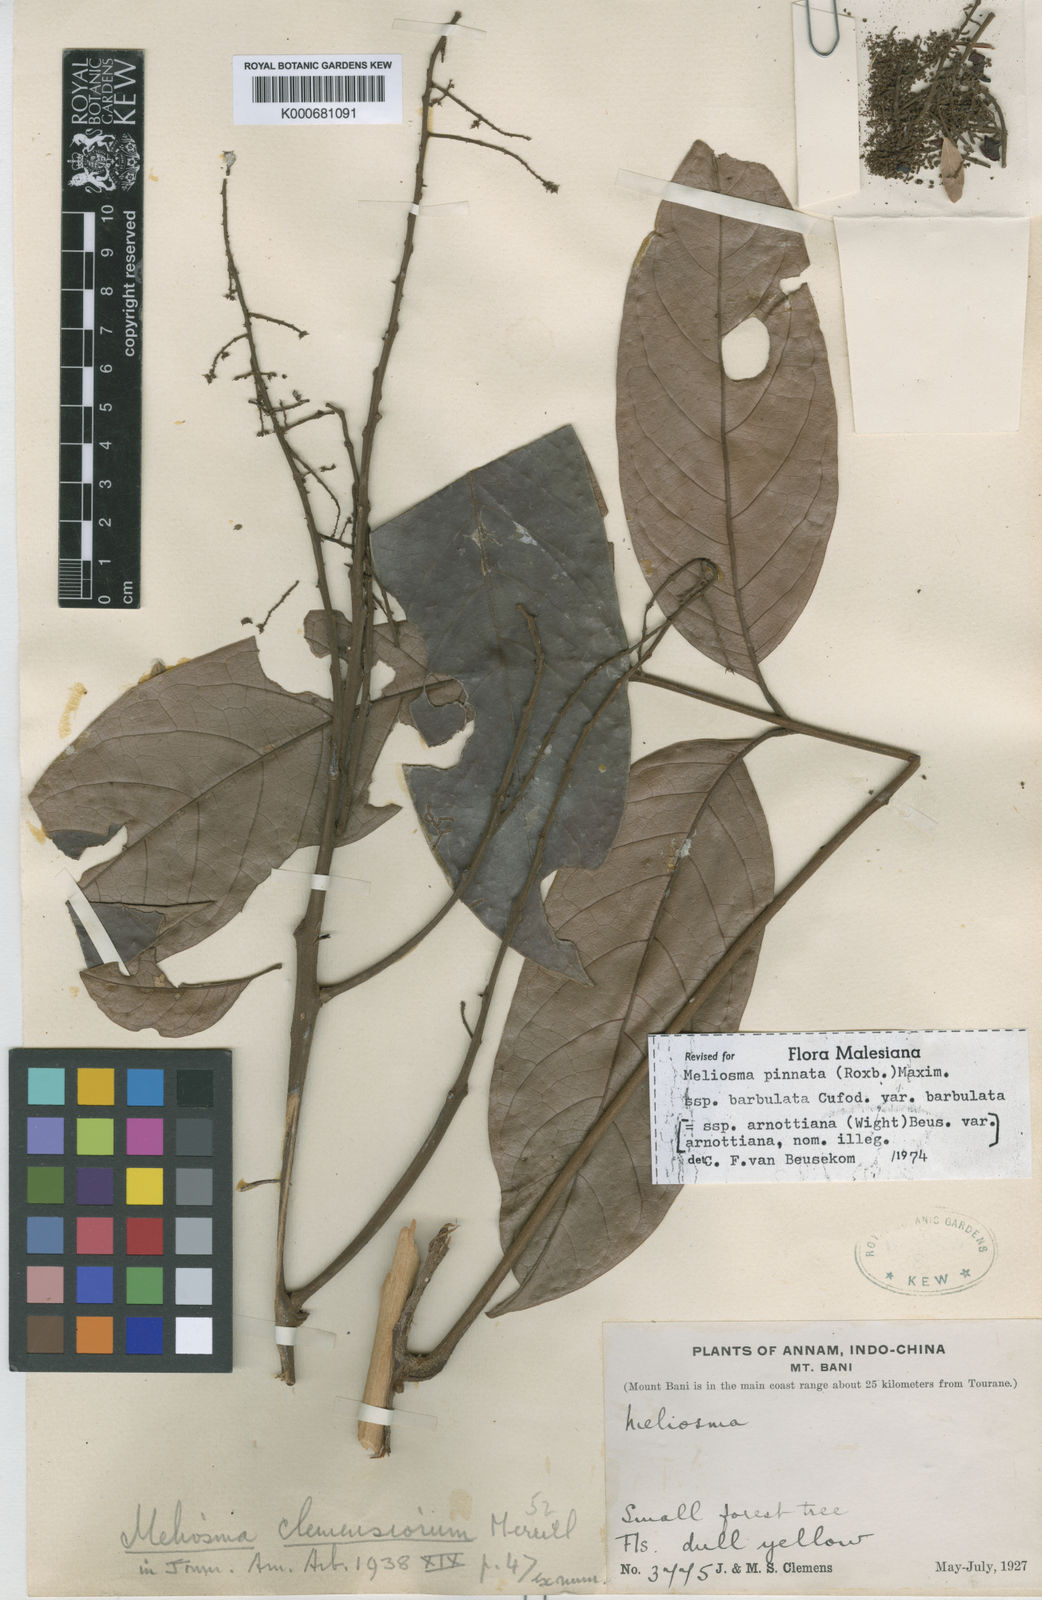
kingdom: Plantae
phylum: Tracheophyta
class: Magnoliopsida
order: Proteales
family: Sabiaceae
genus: Meliosma
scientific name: Meliosma rhoifolia
